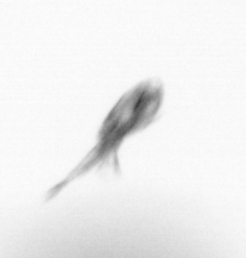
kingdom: Animalia
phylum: Arthropoda
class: Maxillopoda
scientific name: Maxillopoda
